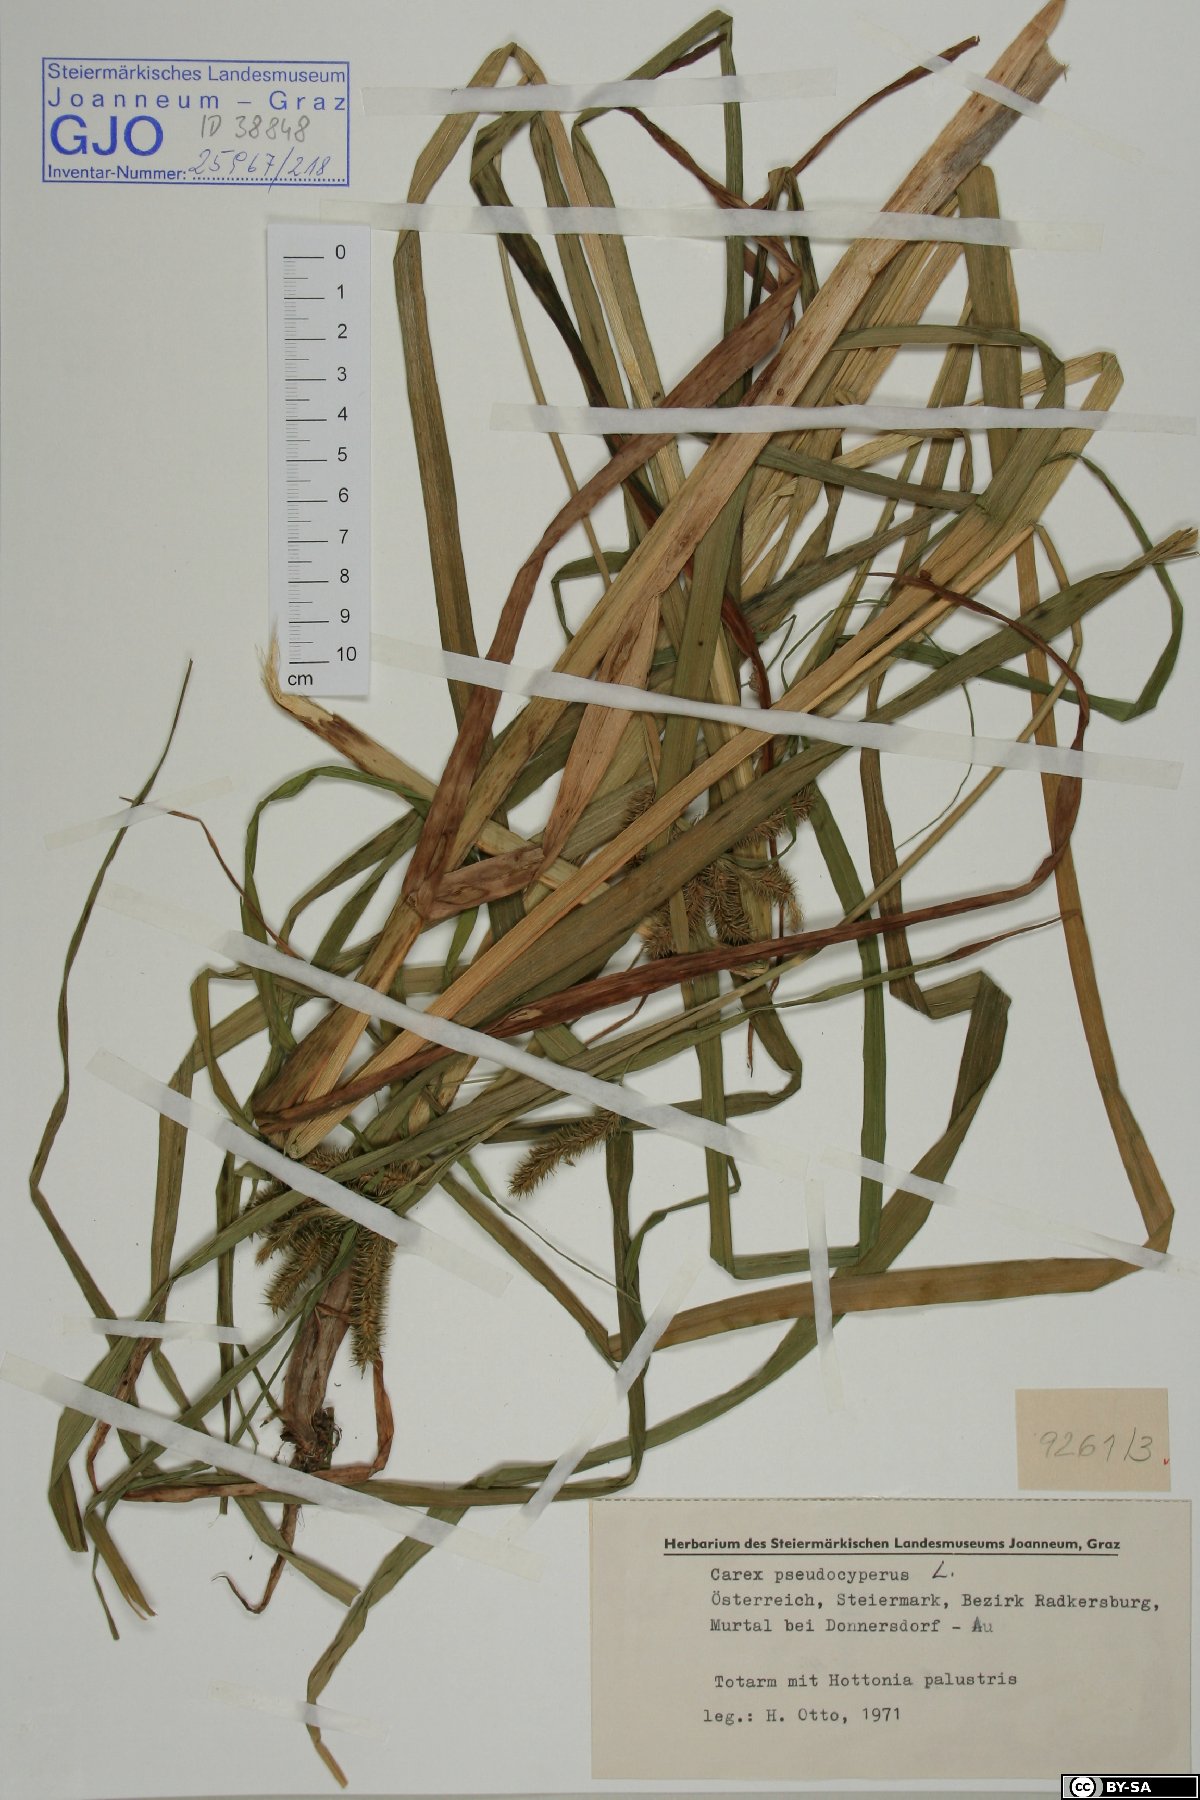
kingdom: Plantae
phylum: Tracheophyta
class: Liliopsida
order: Poales
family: Cyperaceae
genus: Carex
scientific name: Carex pseudocyperus
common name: Cyperus sedge
